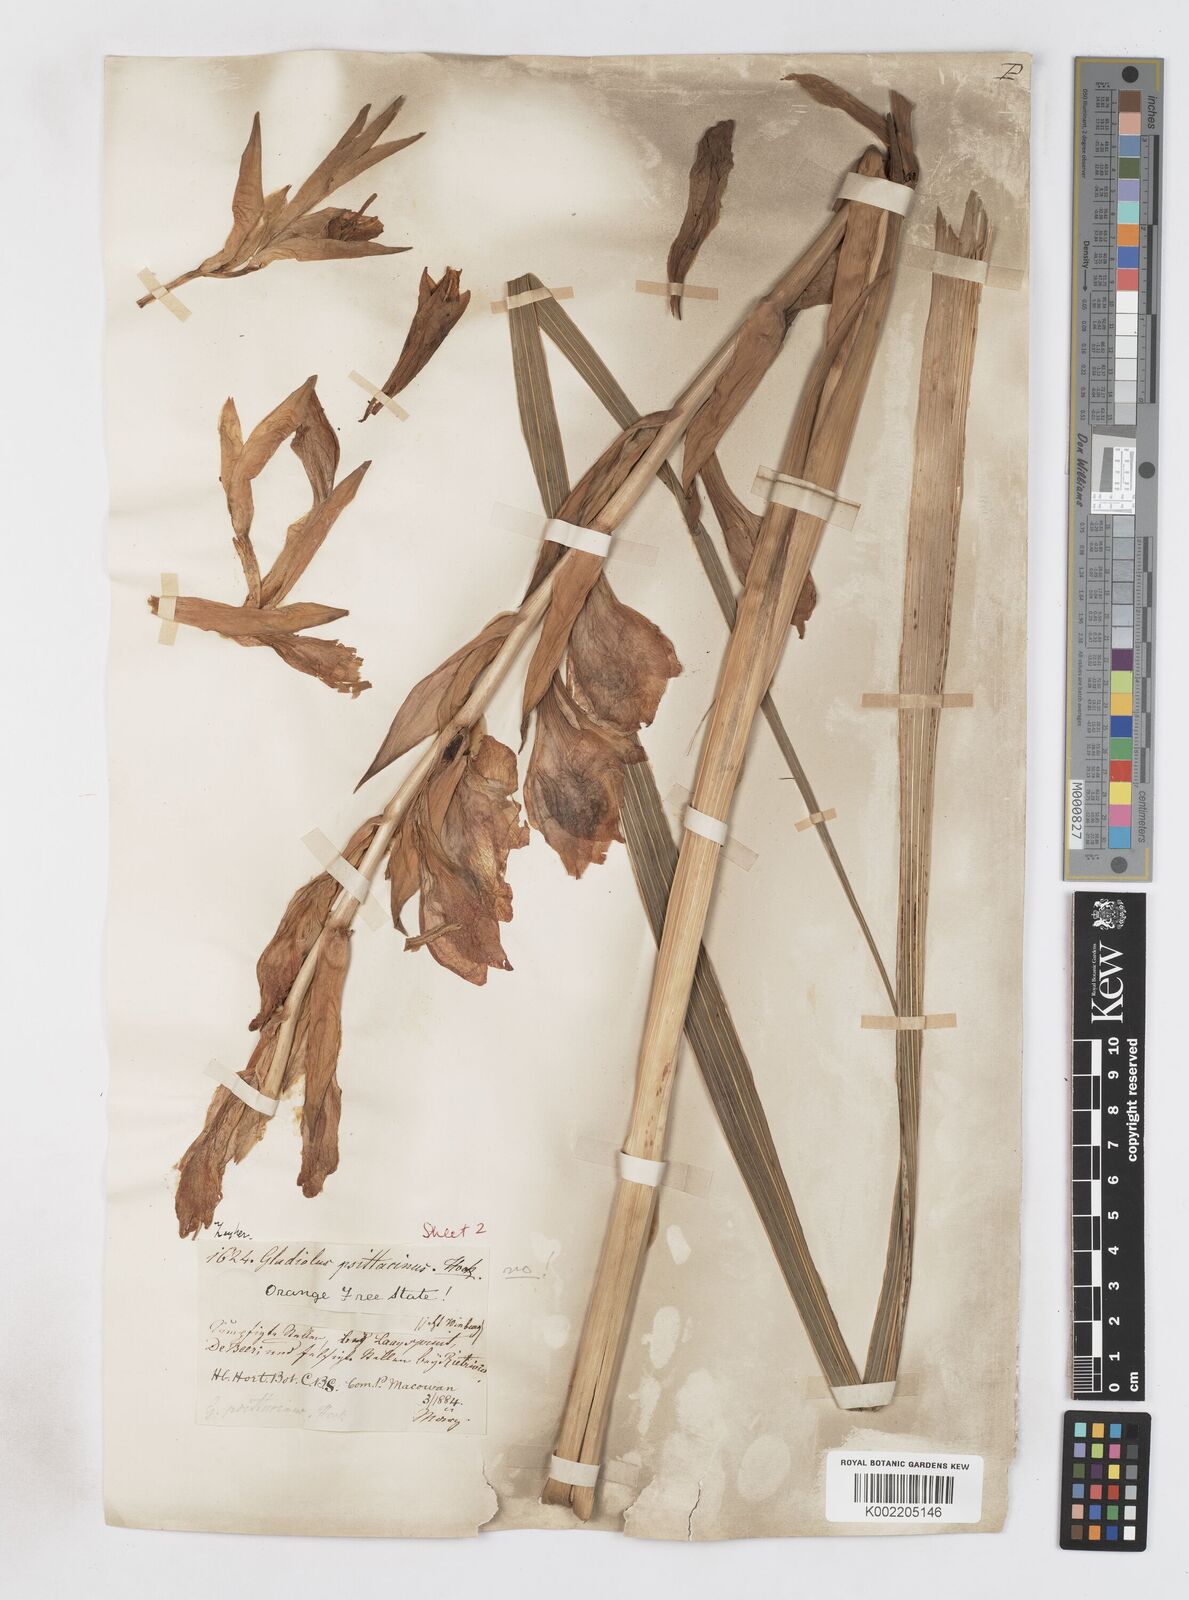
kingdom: Plantae
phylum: Tracheophyta
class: Liliopsida
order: Asparagales
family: Iridaceae
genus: Gladiolus
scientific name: Gladiolus dalenii
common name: Cornflag
